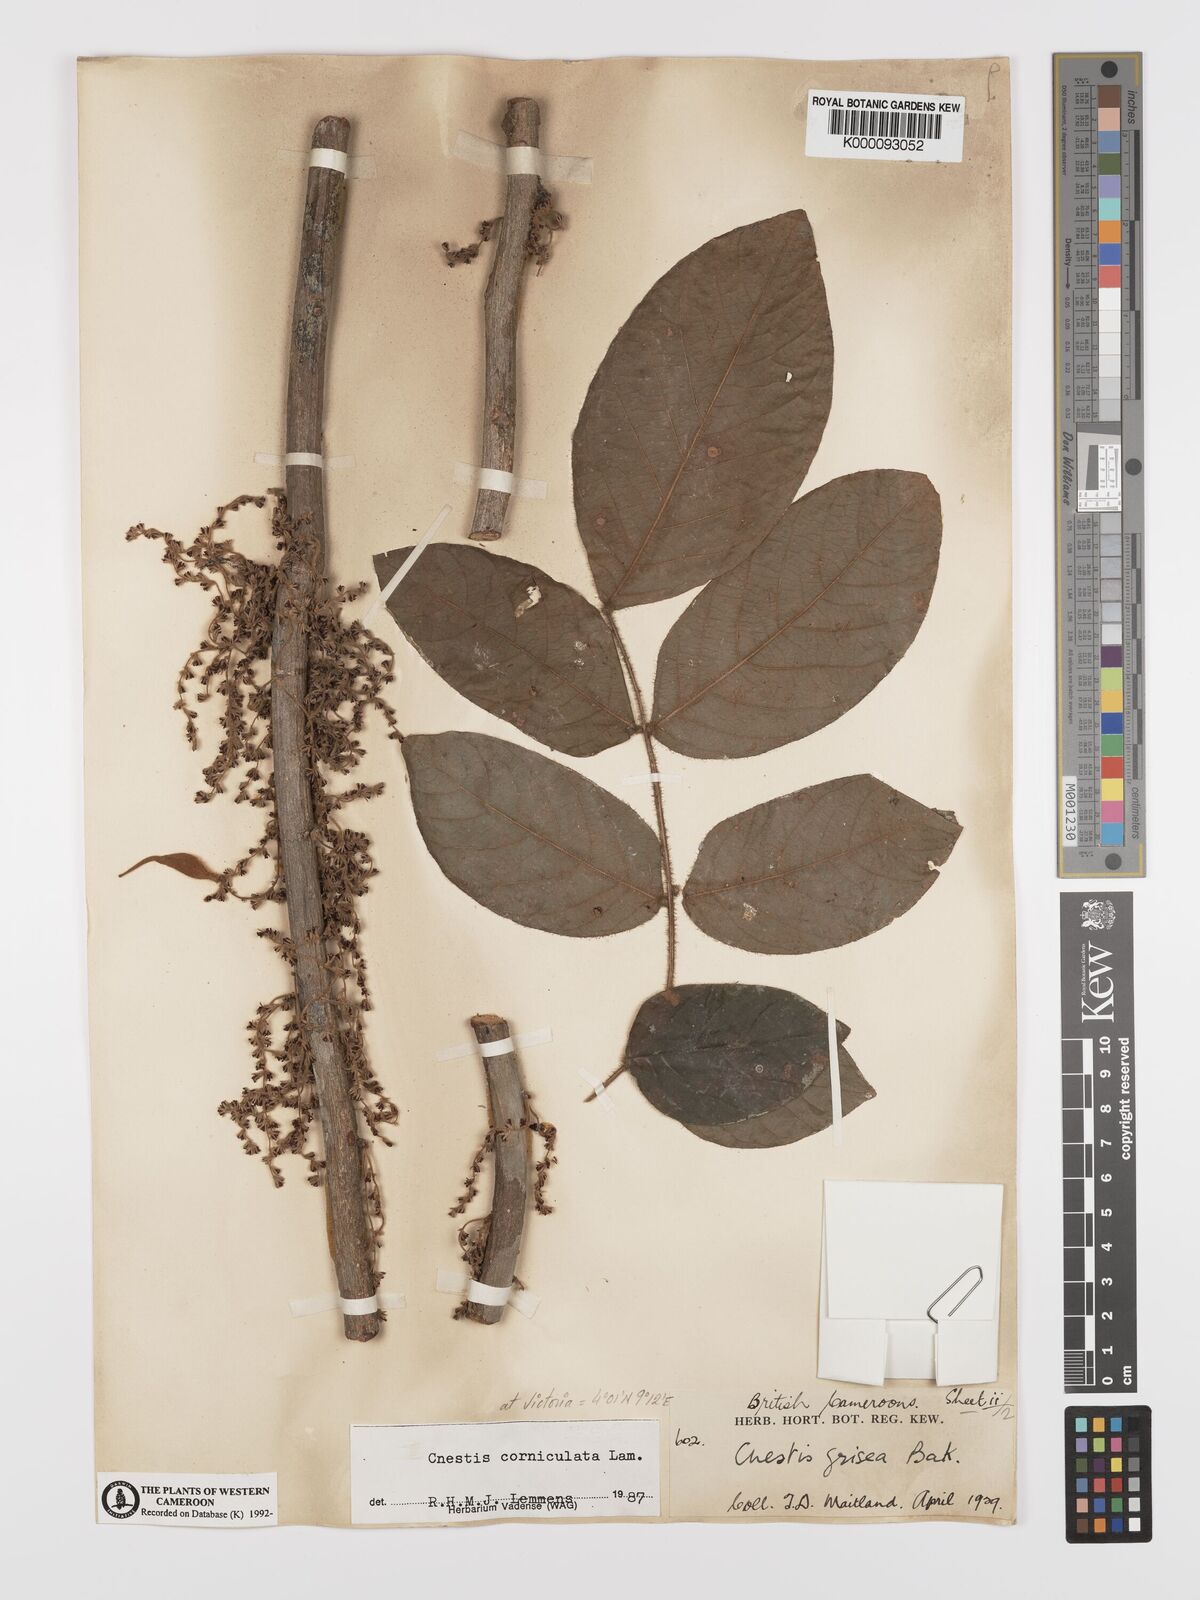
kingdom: Plantae
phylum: Tracheophyta
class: Magnoliopsida
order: Oxalidales
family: Connaraceae
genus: Cnestis
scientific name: Cnestis corniculata
